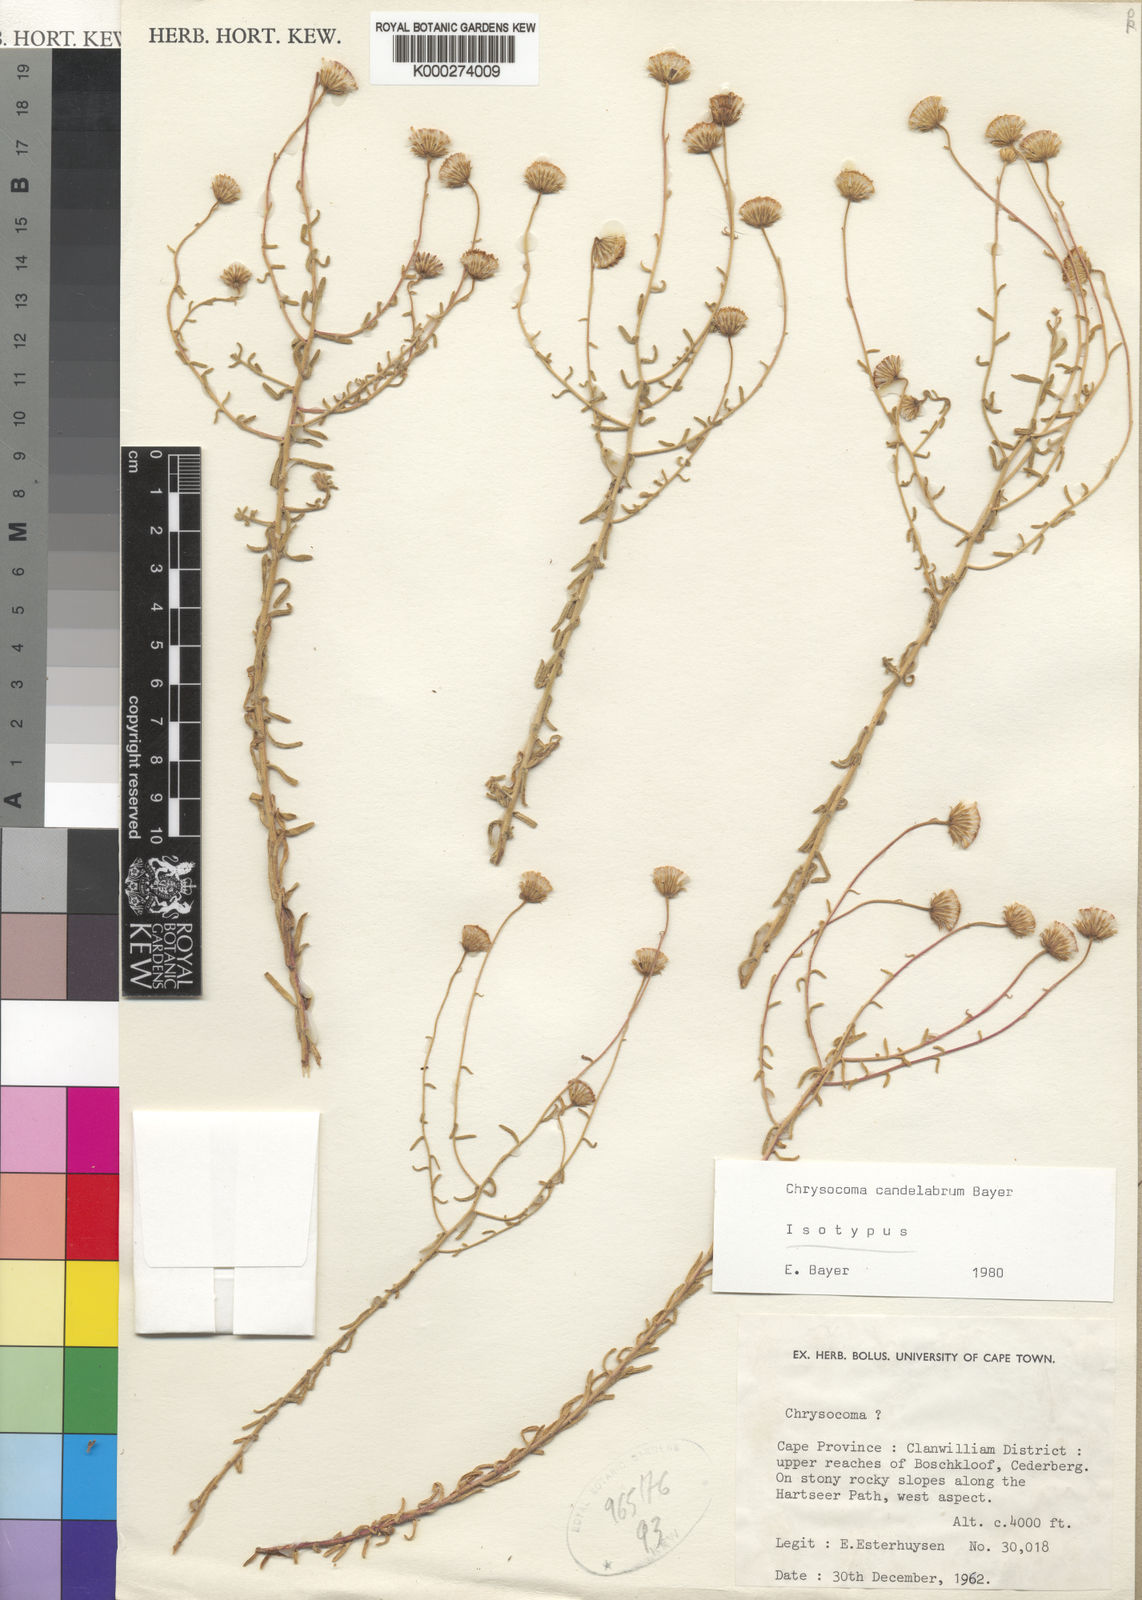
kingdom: Plantae
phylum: Tracheophyta
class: Magnoliopsida
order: Asterales
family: Asteraceae
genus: Chrysocoma
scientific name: Chrysocoma candelabrum
